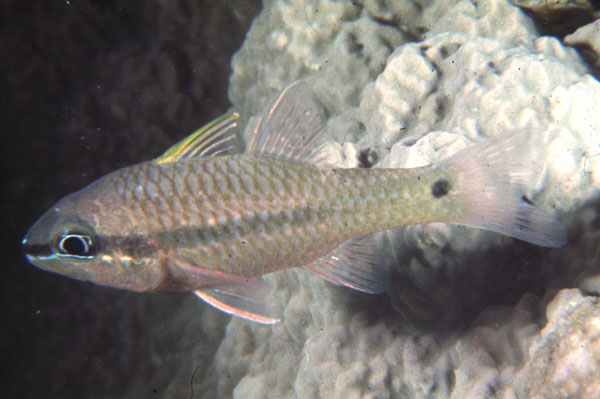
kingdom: Animalia
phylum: Chordata
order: Perciformes
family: Apogonidae
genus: Pristiapogon
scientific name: Pristiapogon kallopterus
